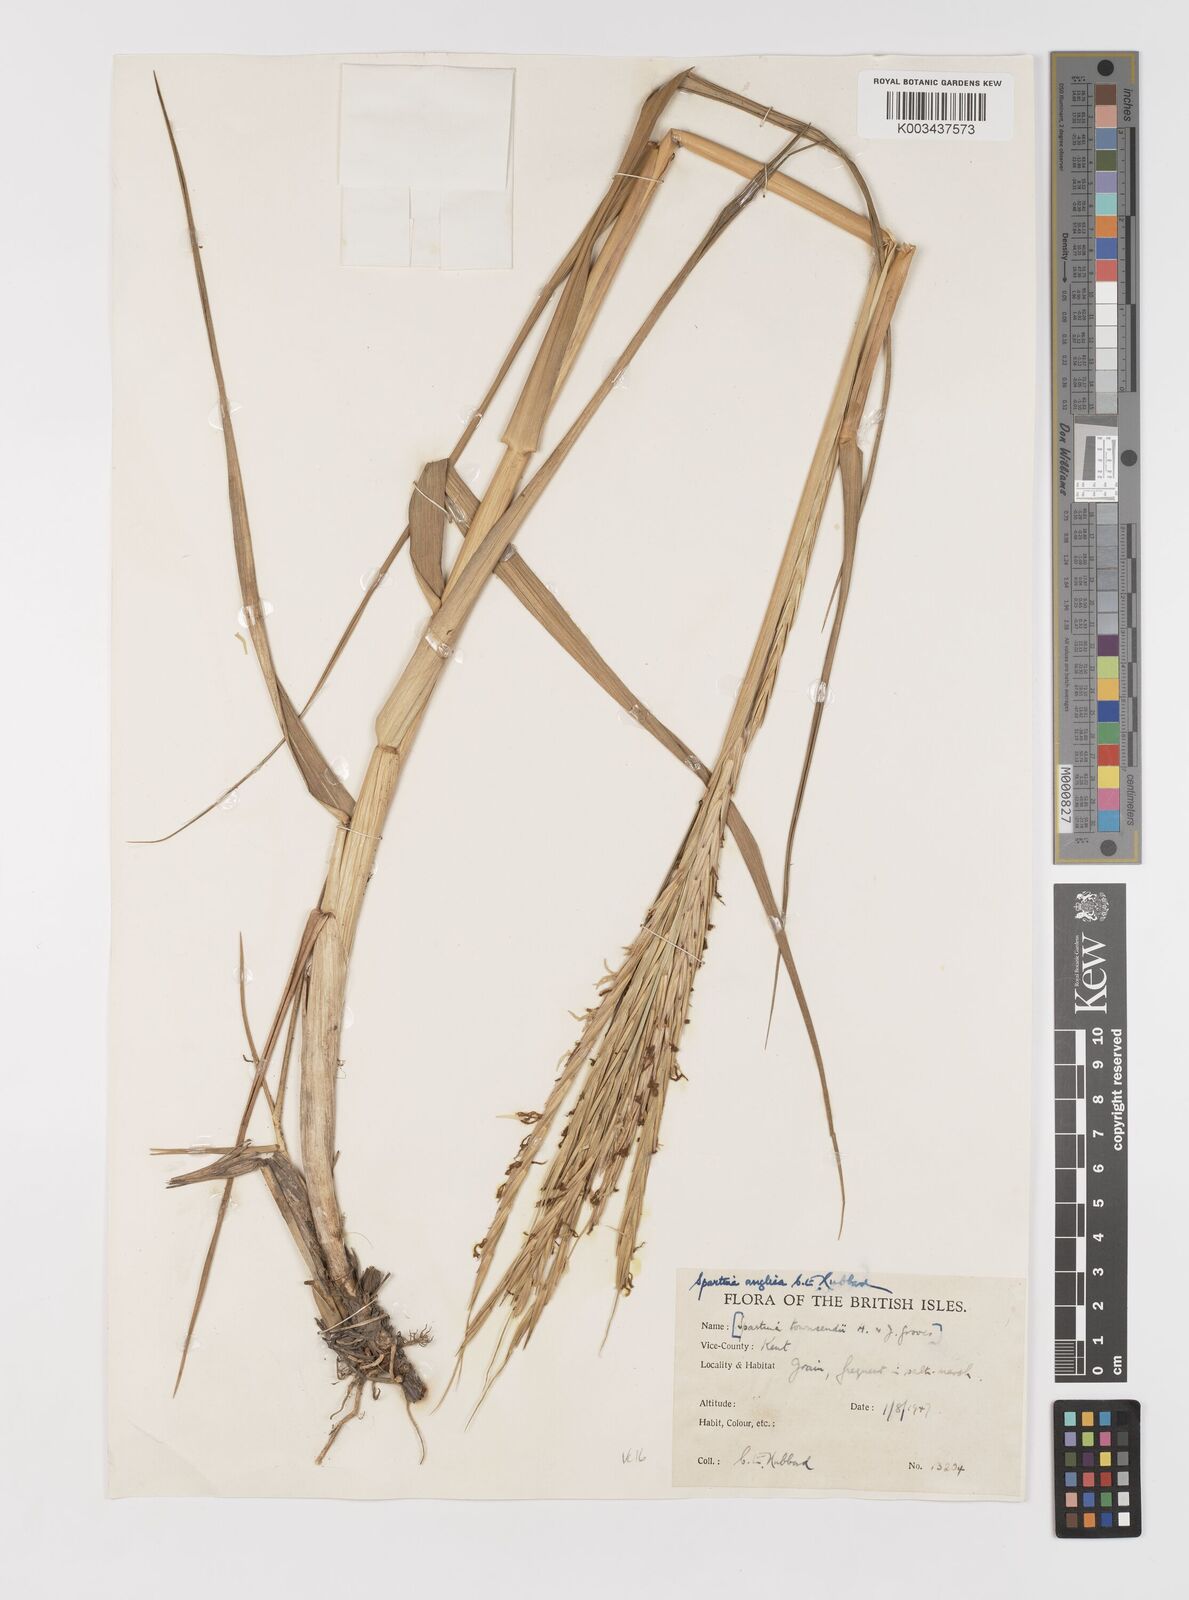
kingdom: Plantae
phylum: Tracheophyta
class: Liliopsida
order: Poales
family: Poaceae
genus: Sporobolus
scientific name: Sporobolus anglicus
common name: English cordgrass
